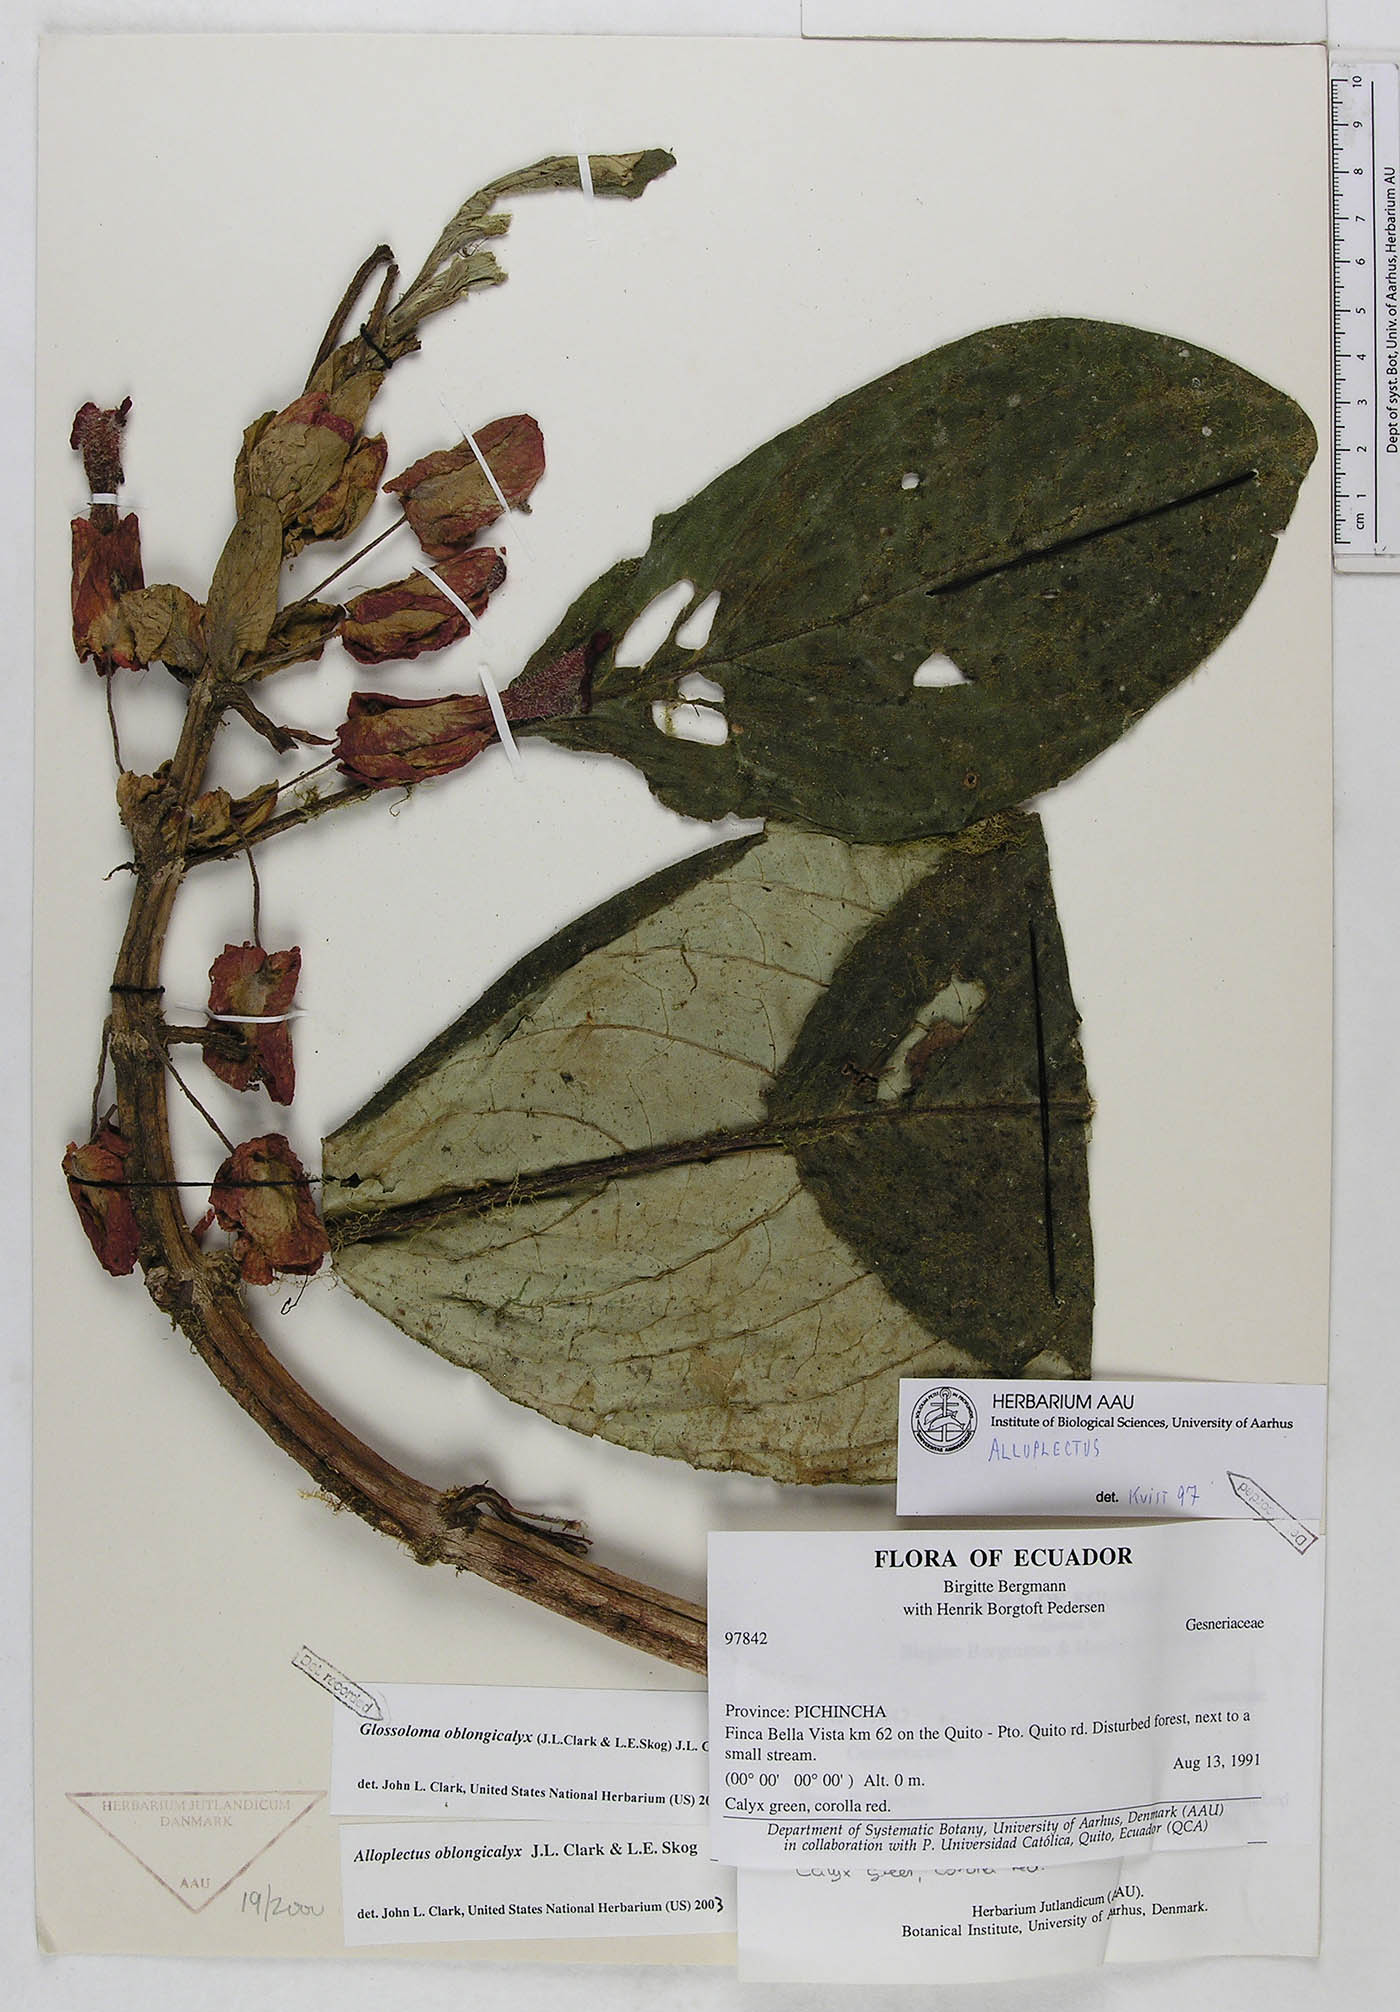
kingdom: Plantae
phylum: Tracheophyta
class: Magnoliopsida
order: Lamiales
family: Gesneriaceae
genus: Glossoloma
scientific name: Glossoloma oblongicalyx
